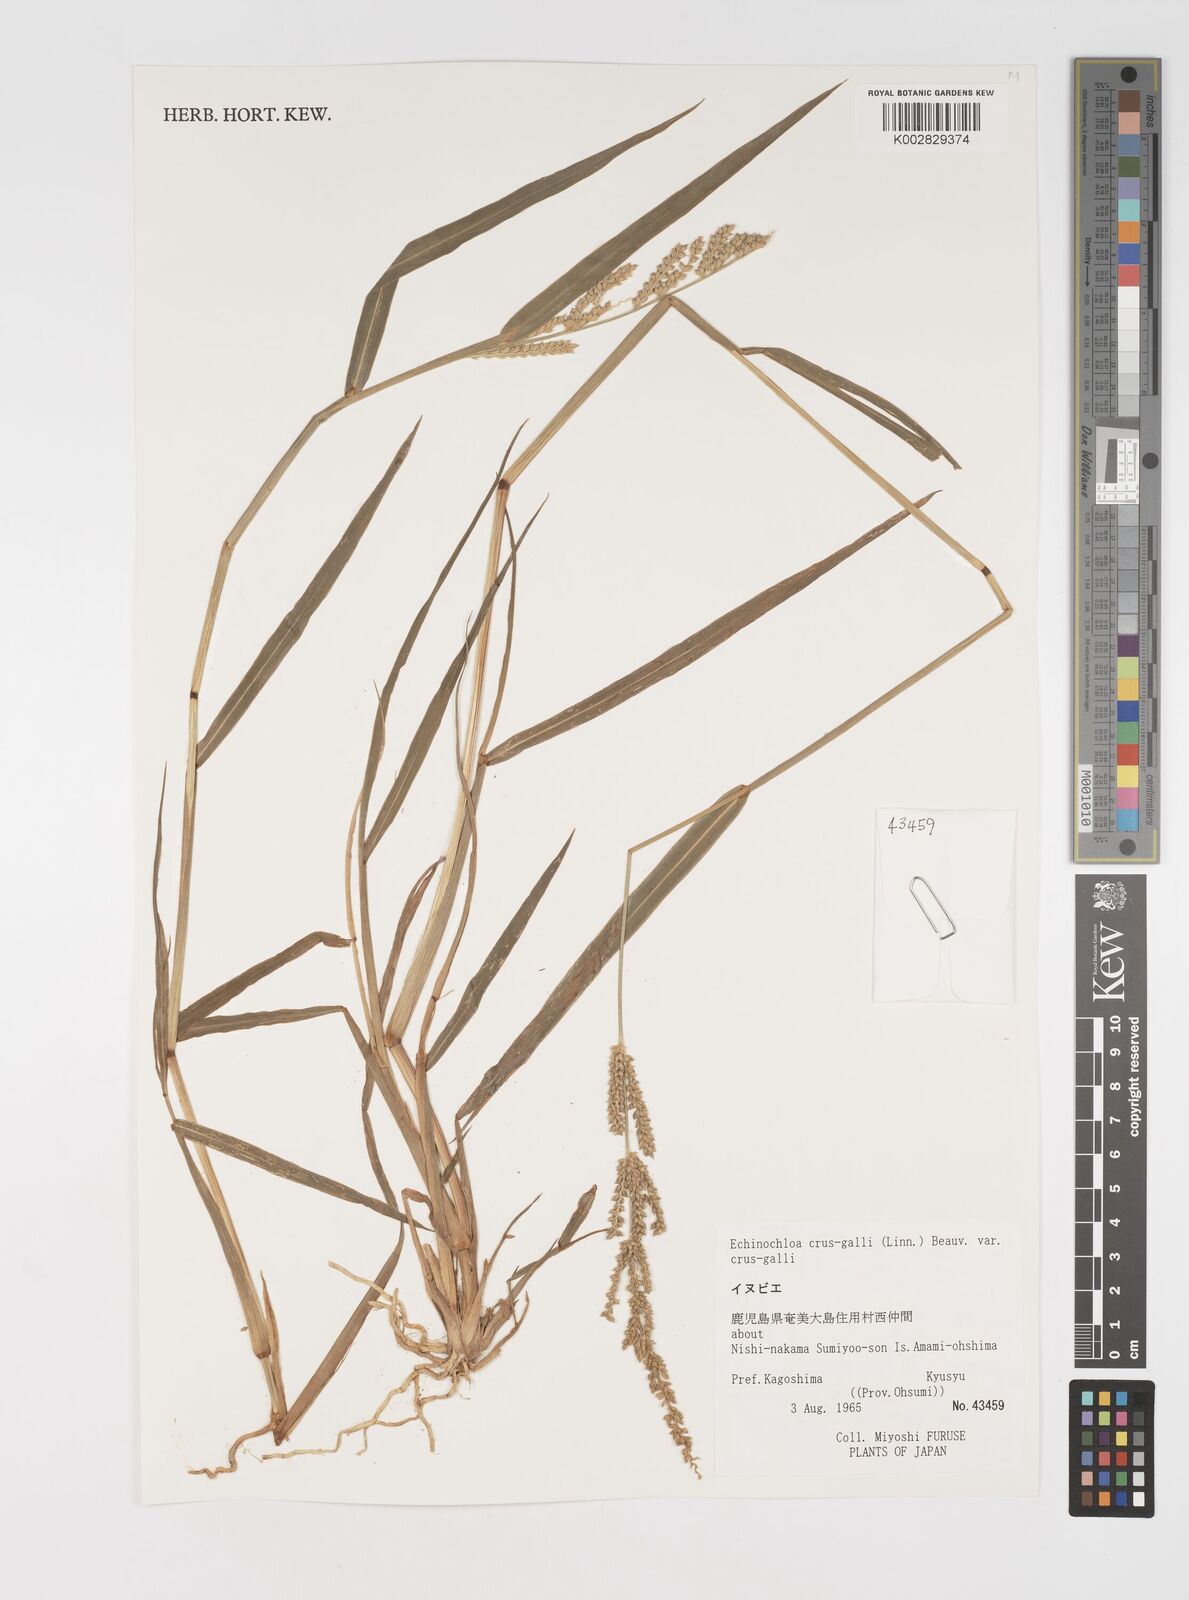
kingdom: Plantae
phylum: Tracheophyta
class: Liliopsida
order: Poales
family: Poaceae
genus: Echinochloa
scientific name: Echinochloa crus-galli
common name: Cockspur
